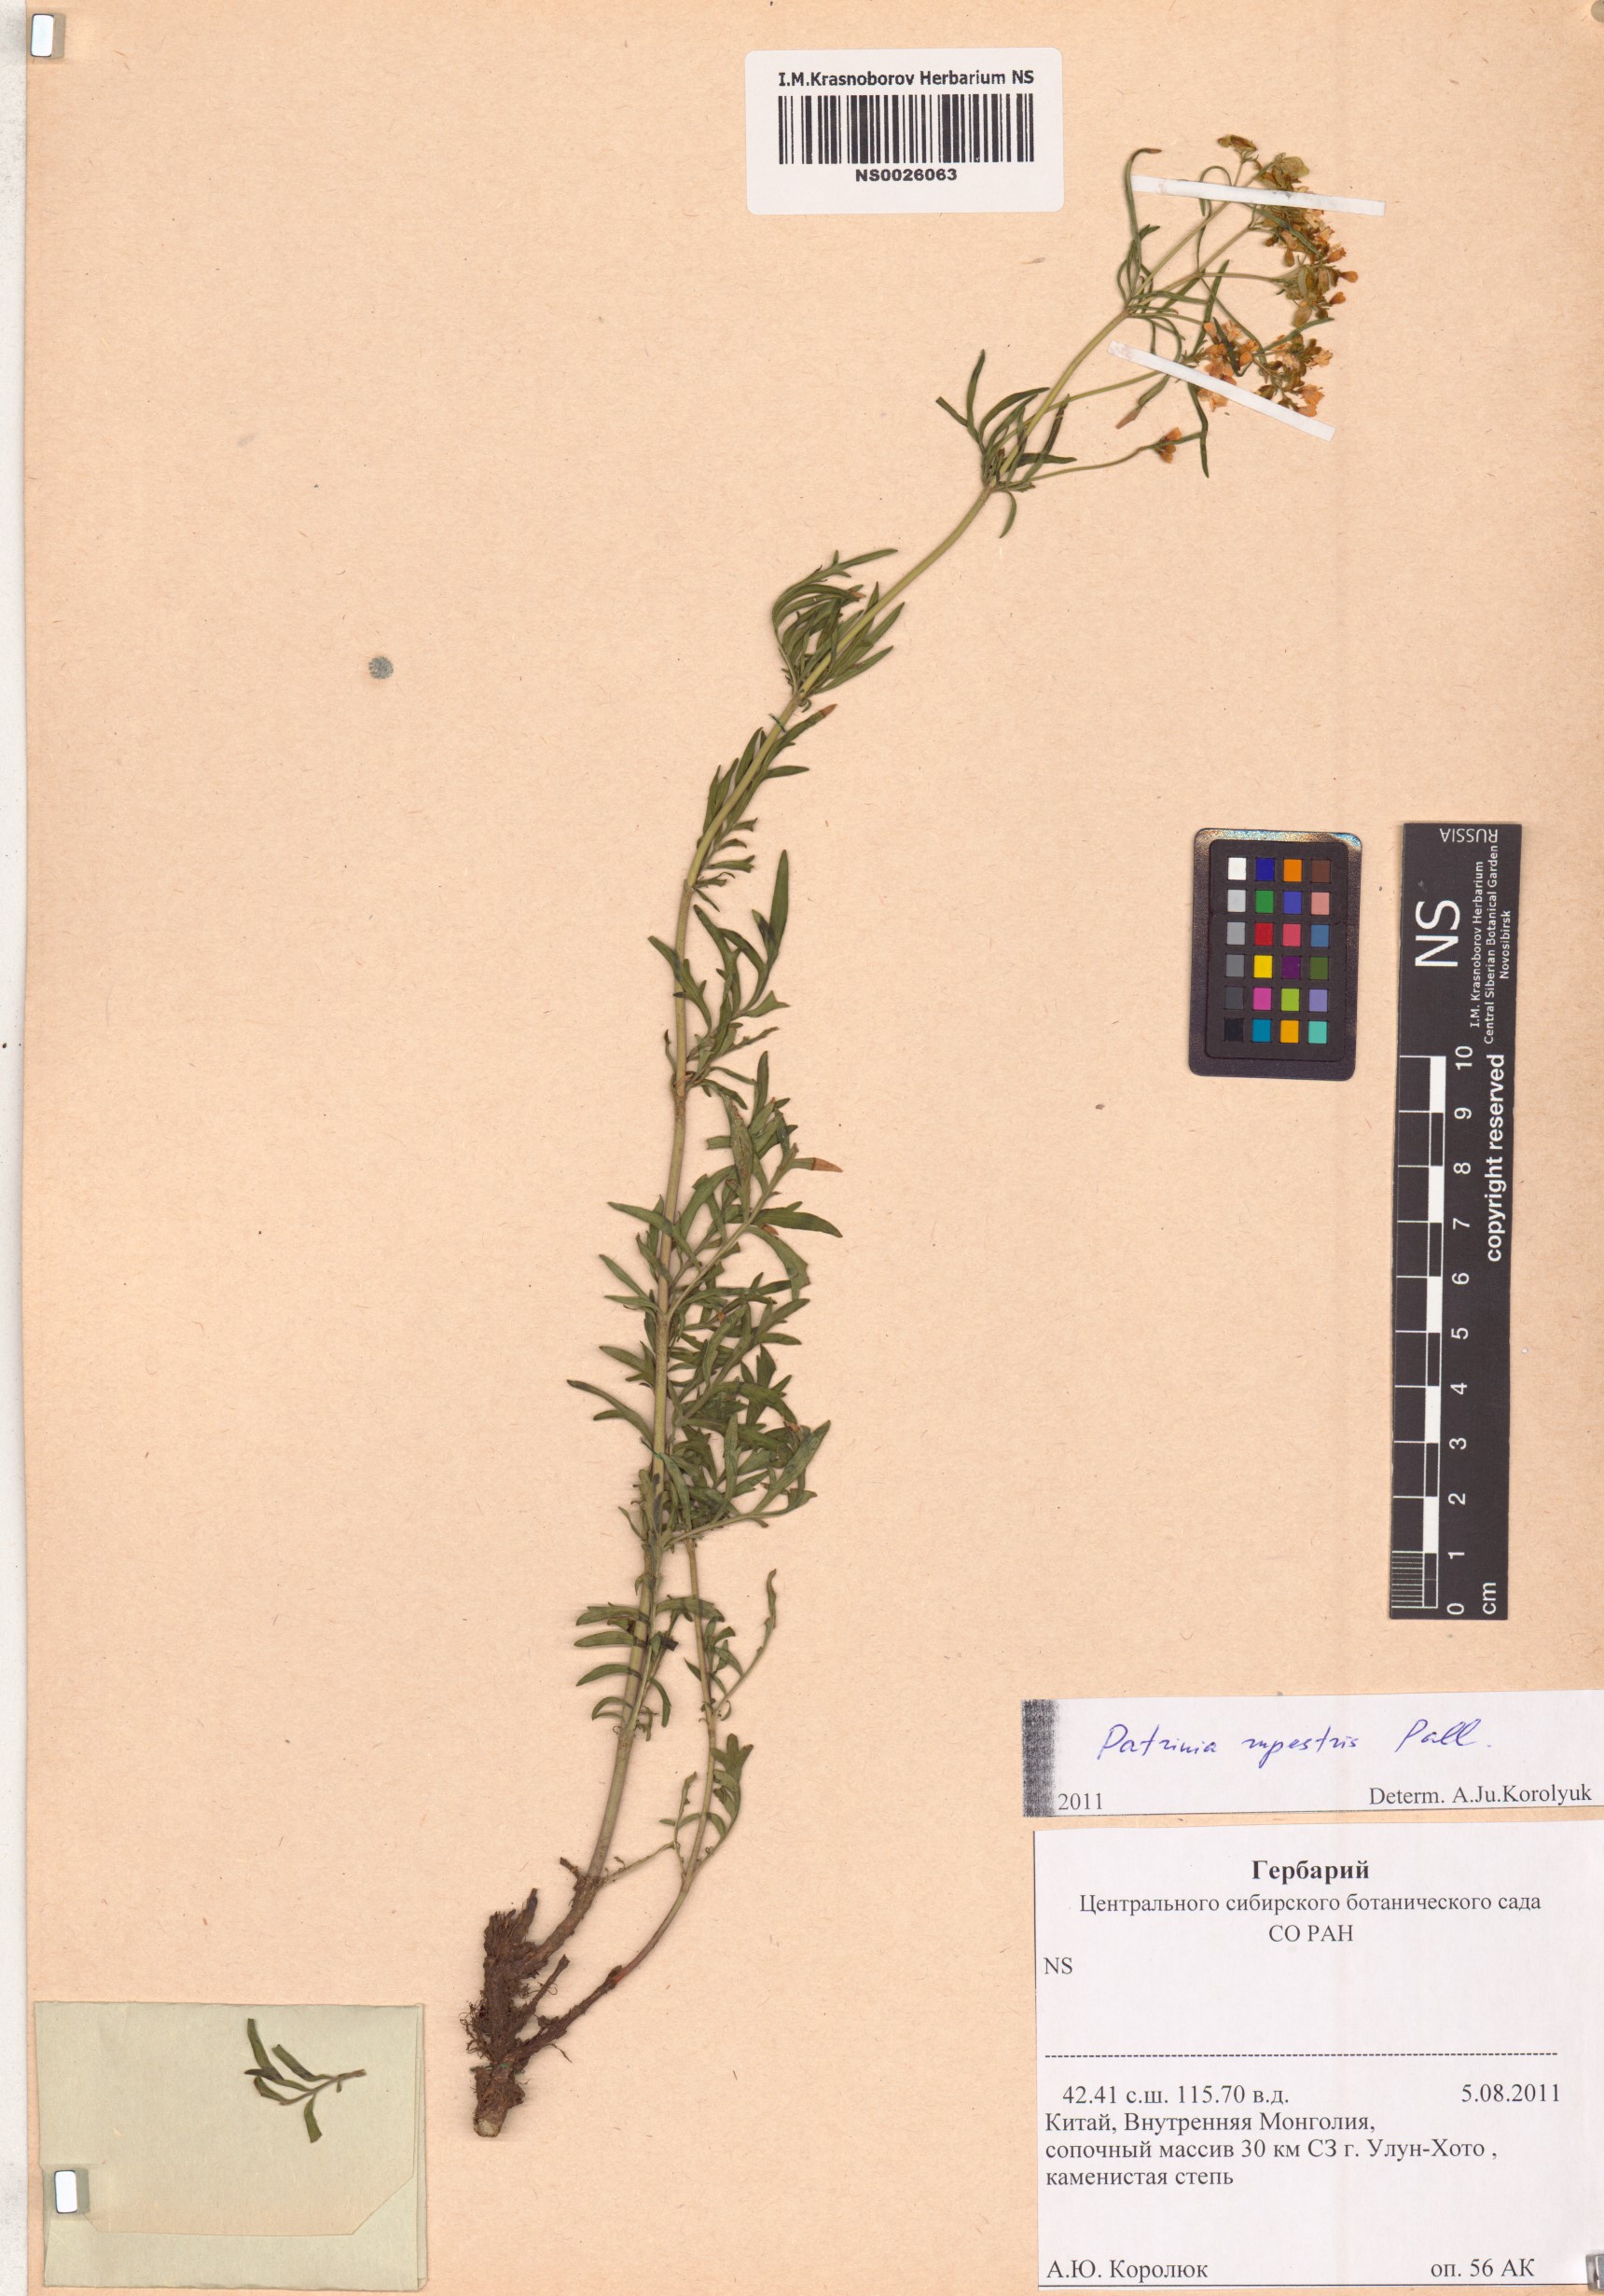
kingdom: Plantae
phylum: Tracheophyta
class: Magnoliopsida
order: Dipsacales
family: Caprifoliaceae
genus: Patrinia
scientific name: Patrinia rupestris
